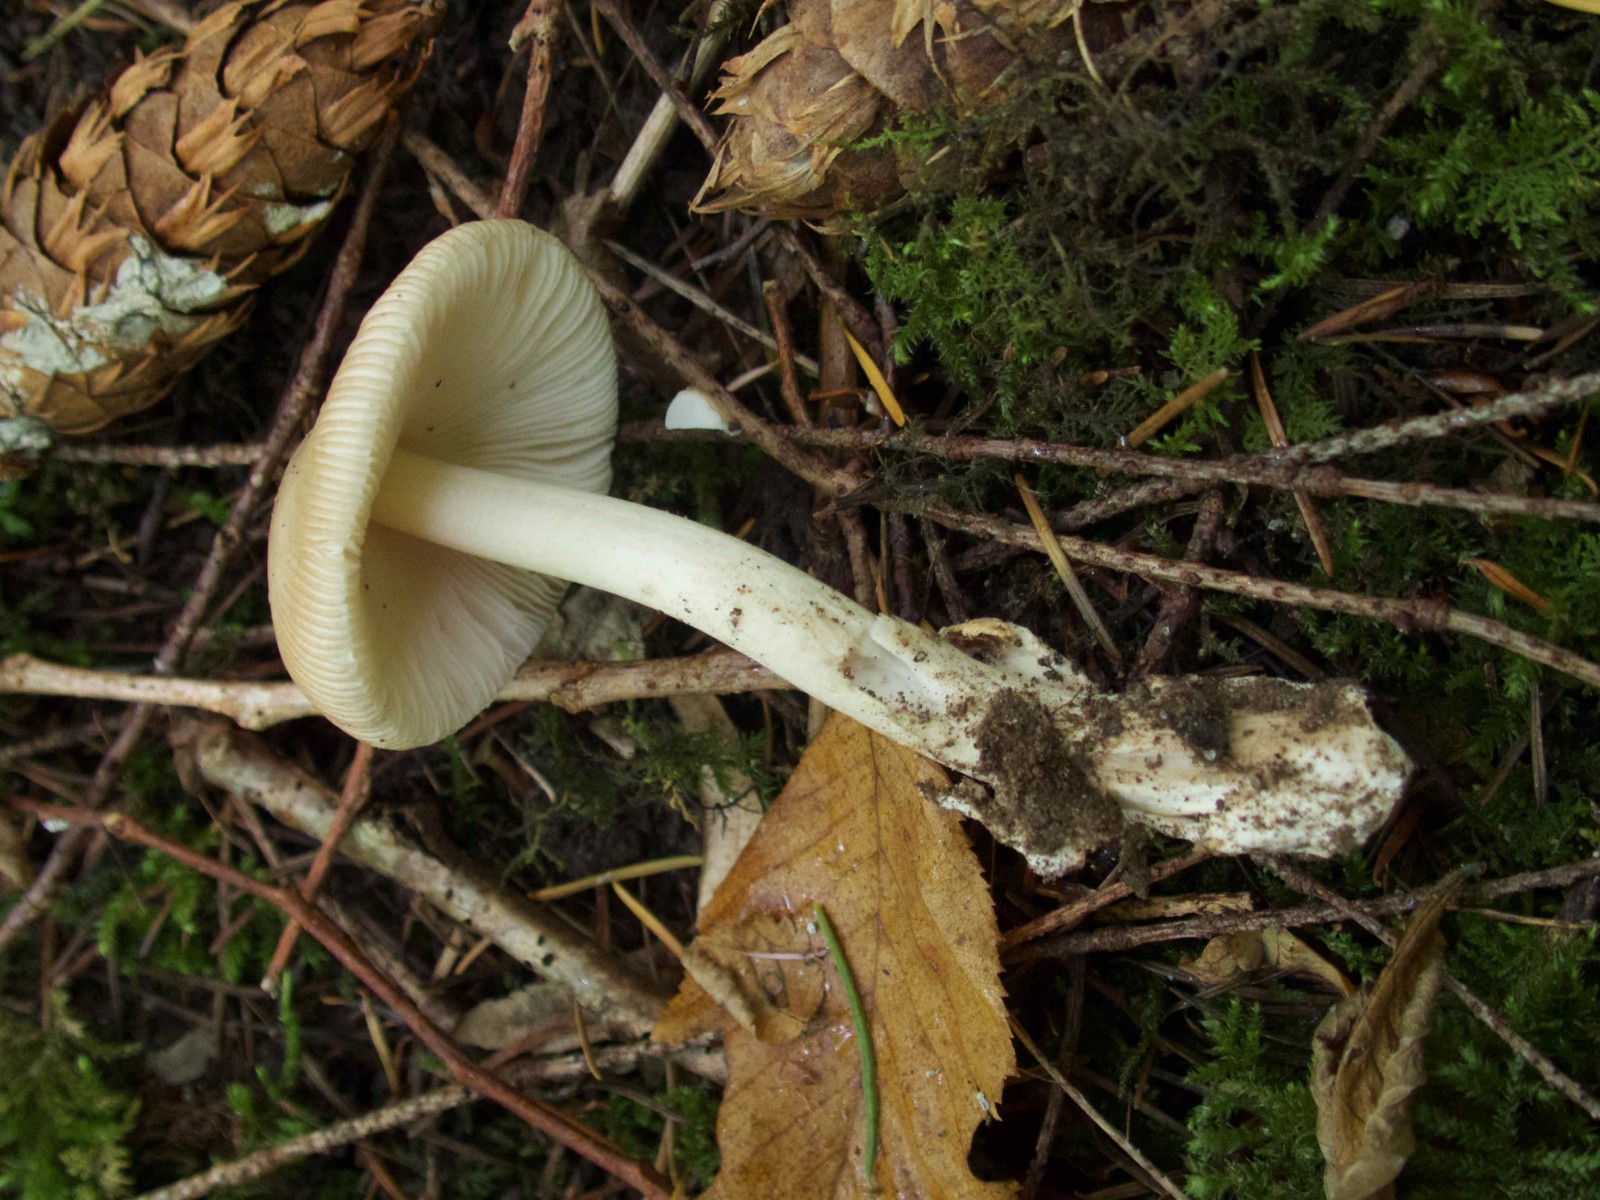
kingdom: Fungi
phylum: Basidiomycota
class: Agaricomycetes
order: Agaricales
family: Amanitaceae
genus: Amanita
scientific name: Amanita
